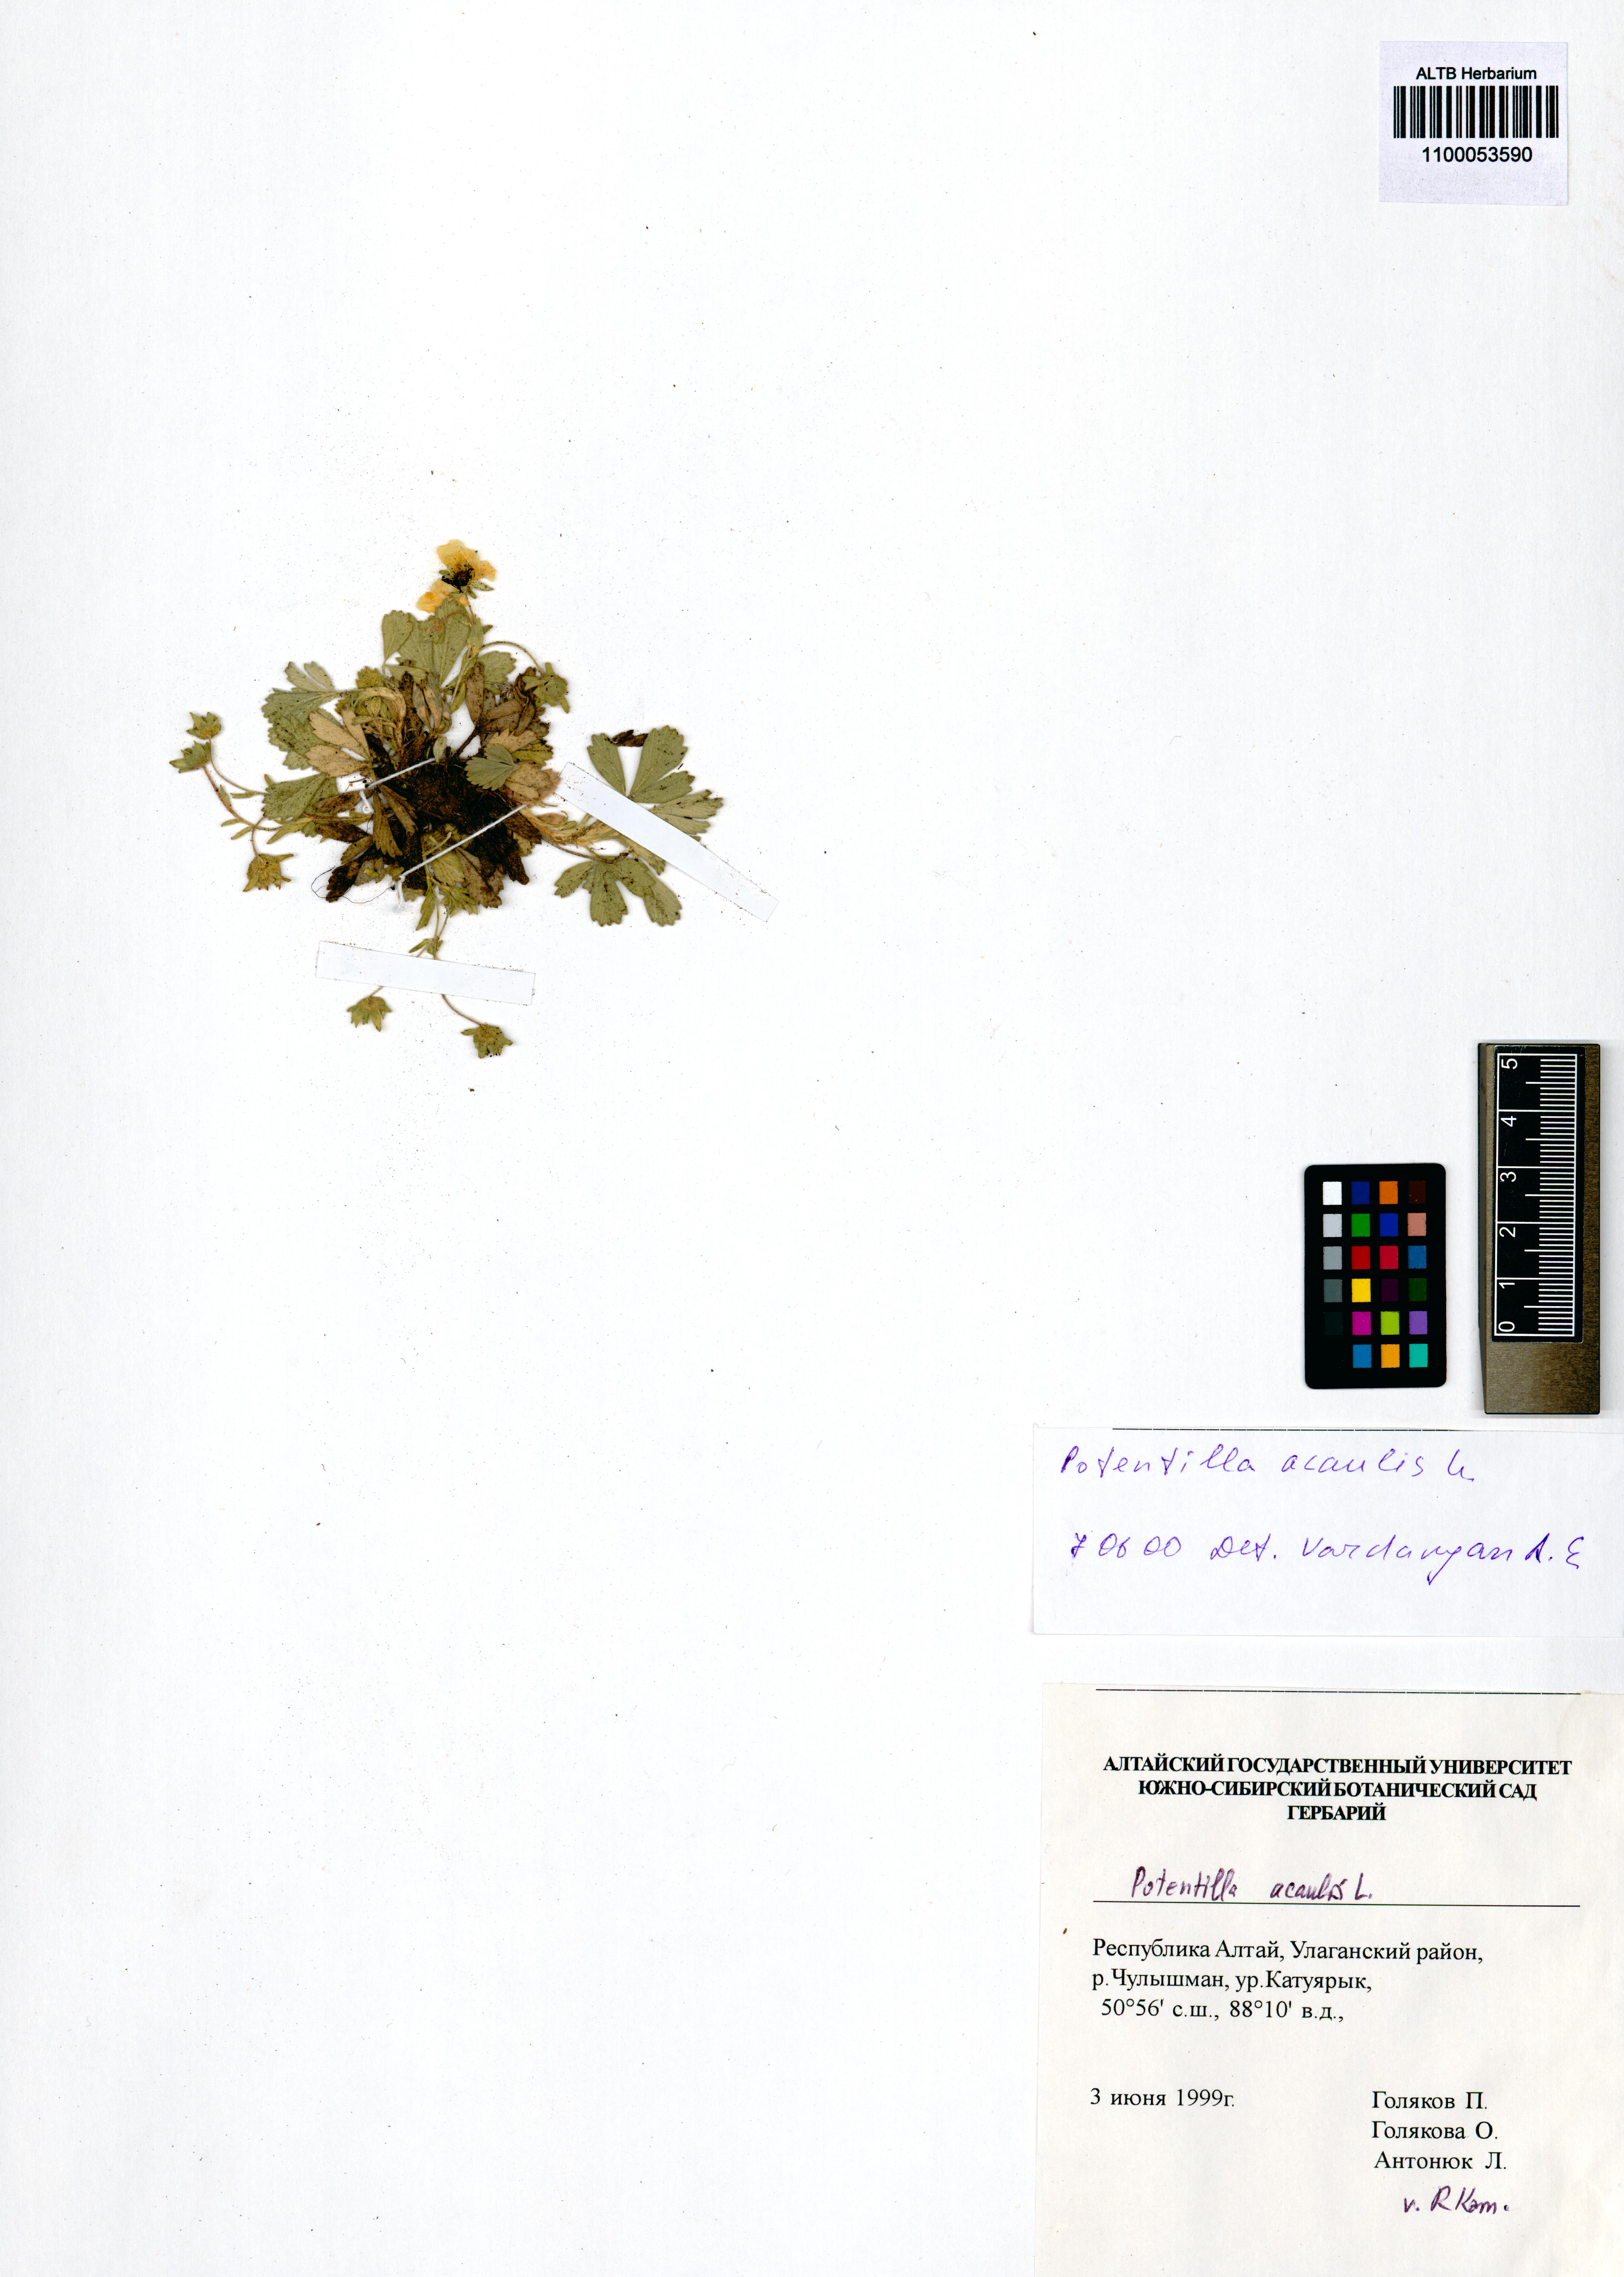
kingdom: Plantae
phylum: Tracheophyta
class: Magnoliopsida
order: Rosales
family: Rosaceae
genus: Potentilla
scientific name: Potentilla acaulis
